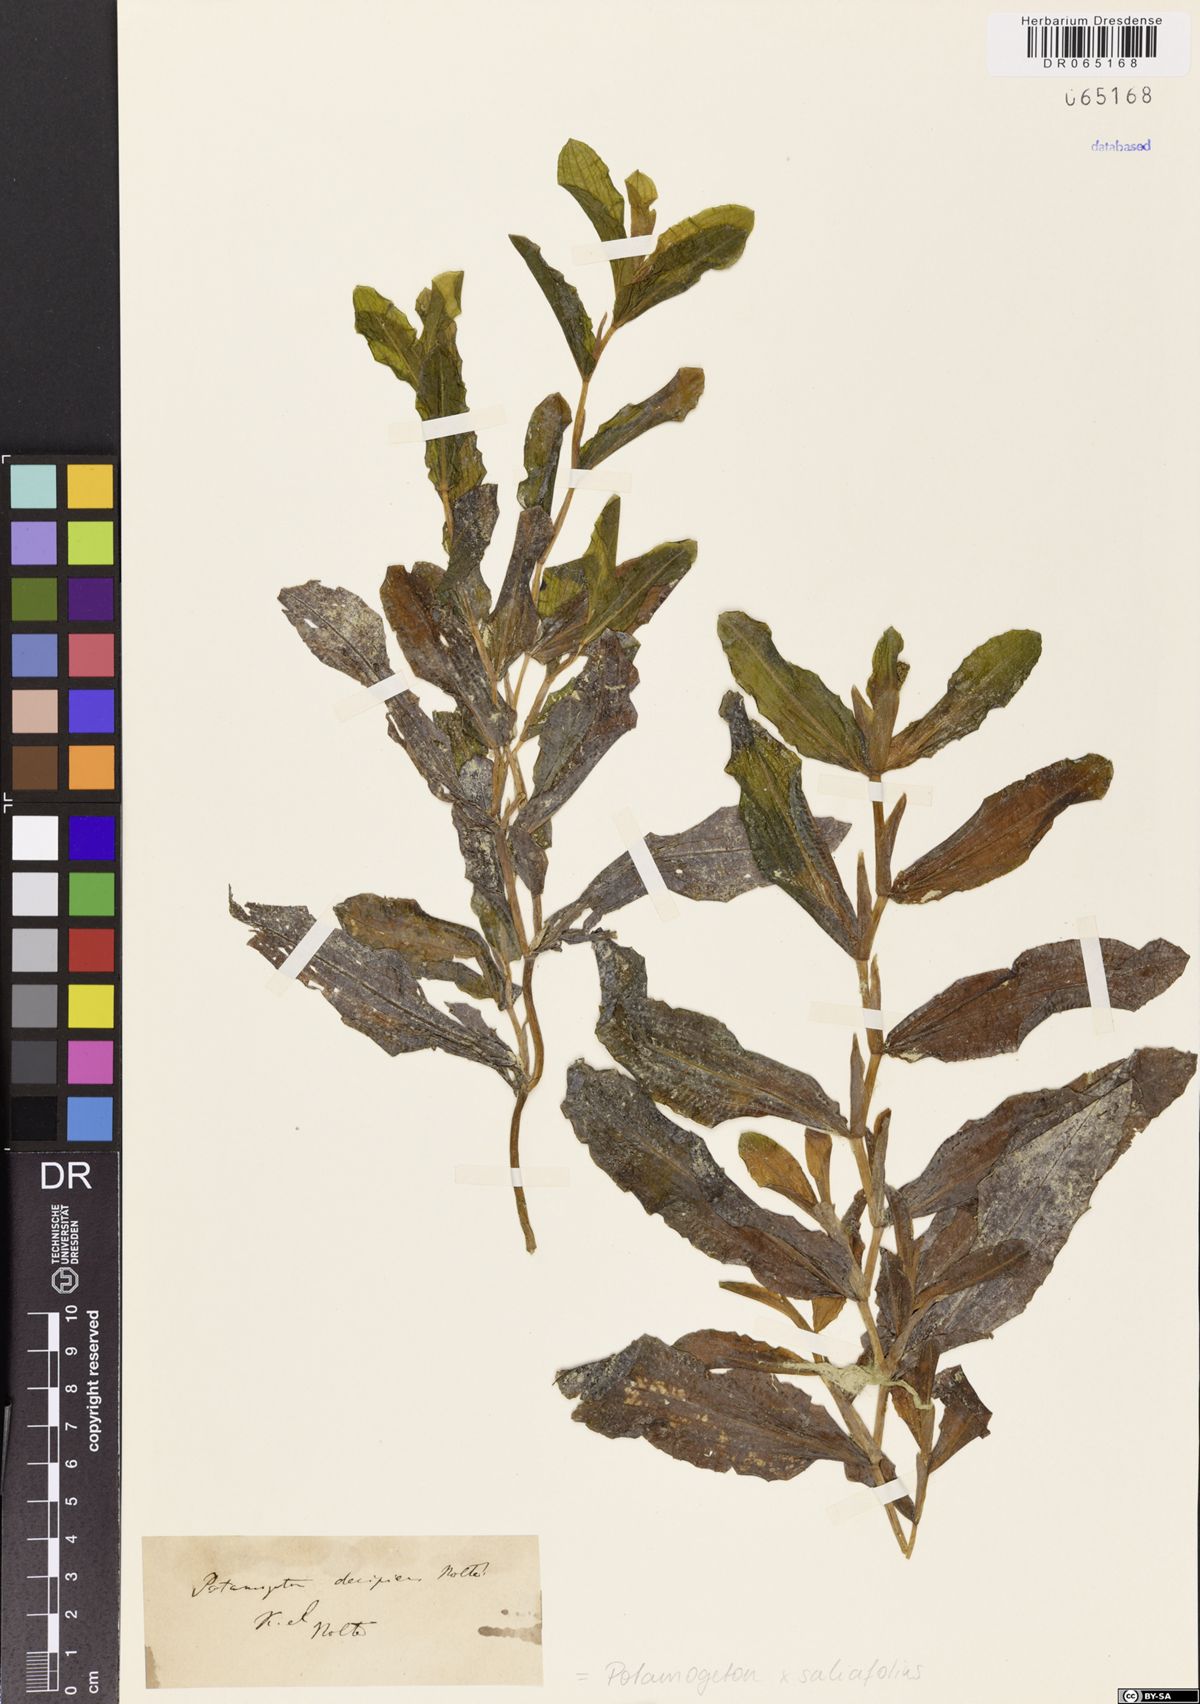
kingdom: Plantae
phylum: Tracheophyta
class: Liliopsida
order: Alismatales
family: Potamogetonaceae
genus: Potamogeton
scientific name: Potamogeton salicifolius
